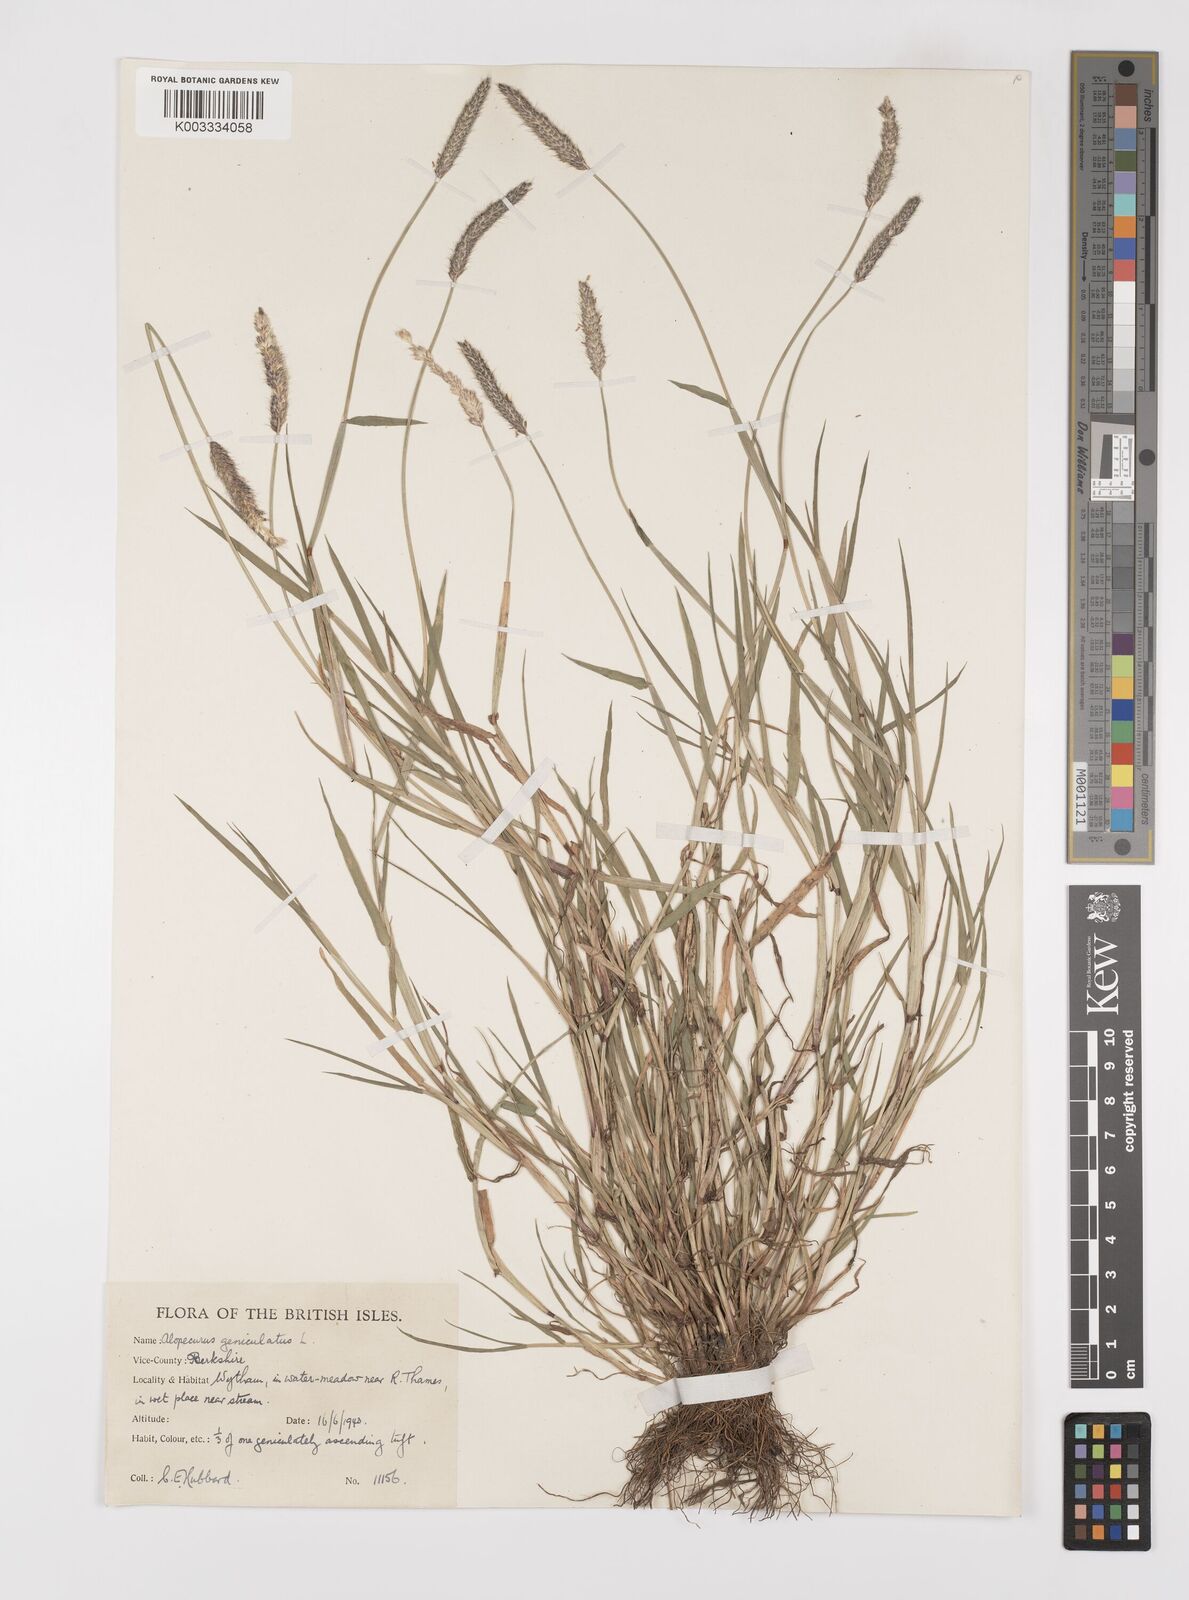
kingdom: Plantae
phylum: Tracheophyta
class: Liliopsida
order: Poales
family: Poaceae
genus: Alopecurus
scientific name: Alopecurus geniculatus
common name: Water foxtail
